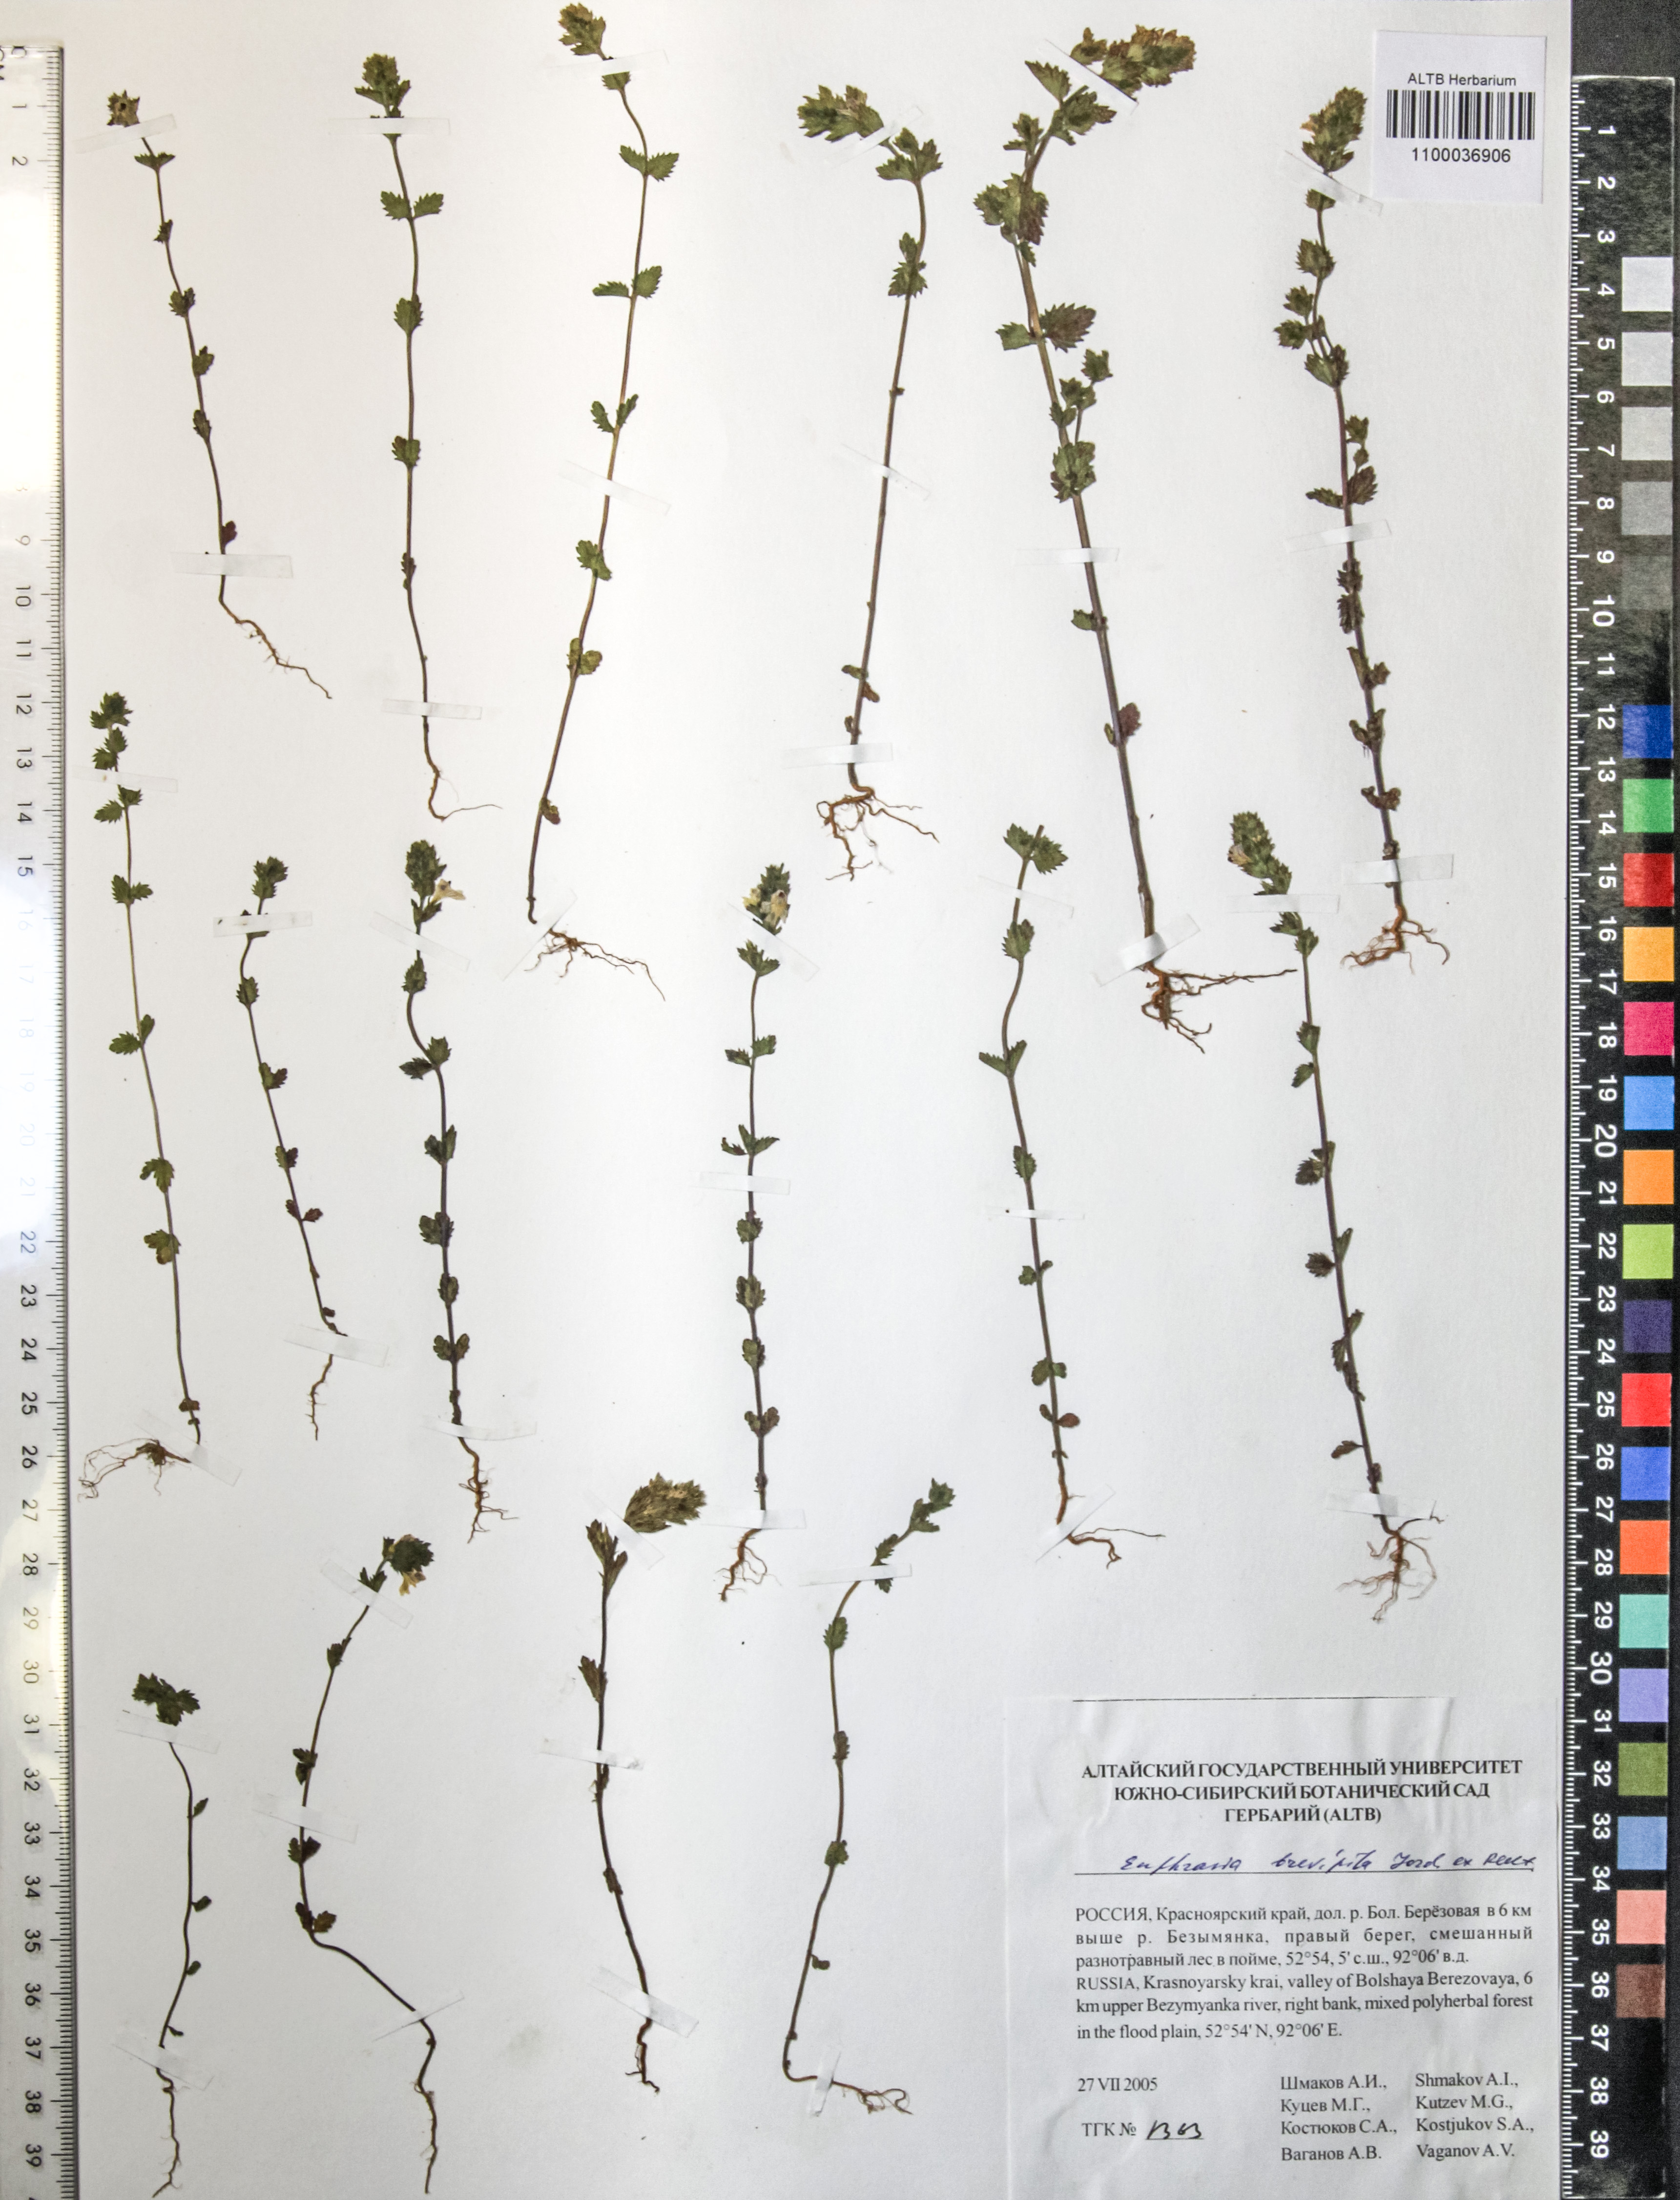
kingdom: Plantae
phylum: Tracheophyta
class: Magnoliopsida
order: Lamiales
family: Orobanchaceae
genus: Euphrasia
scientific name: Euphrasia vernalis
